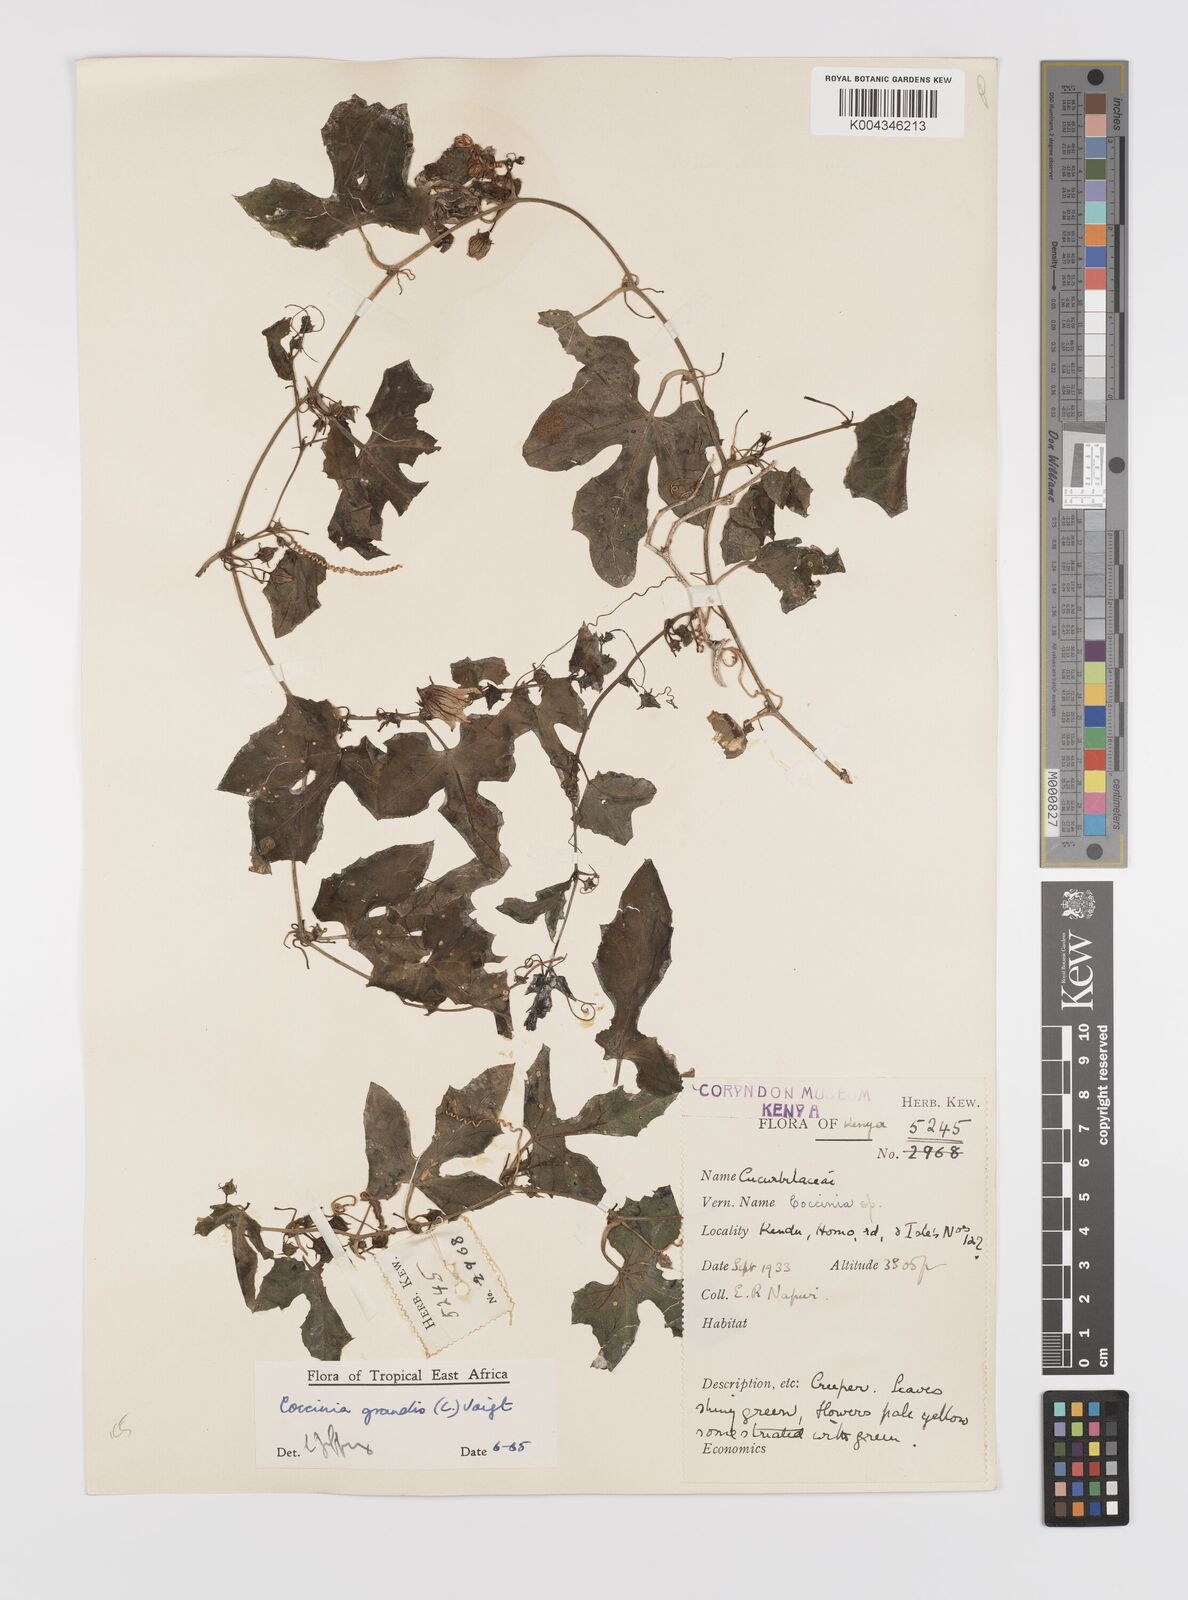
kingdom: Plantae
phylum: Tracheophyta
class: Magnoliopsida
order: Cucurbitales
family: Cucurbitaceae
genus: Coccinia
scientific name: Coccinia grandis
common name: Ivy gourd
